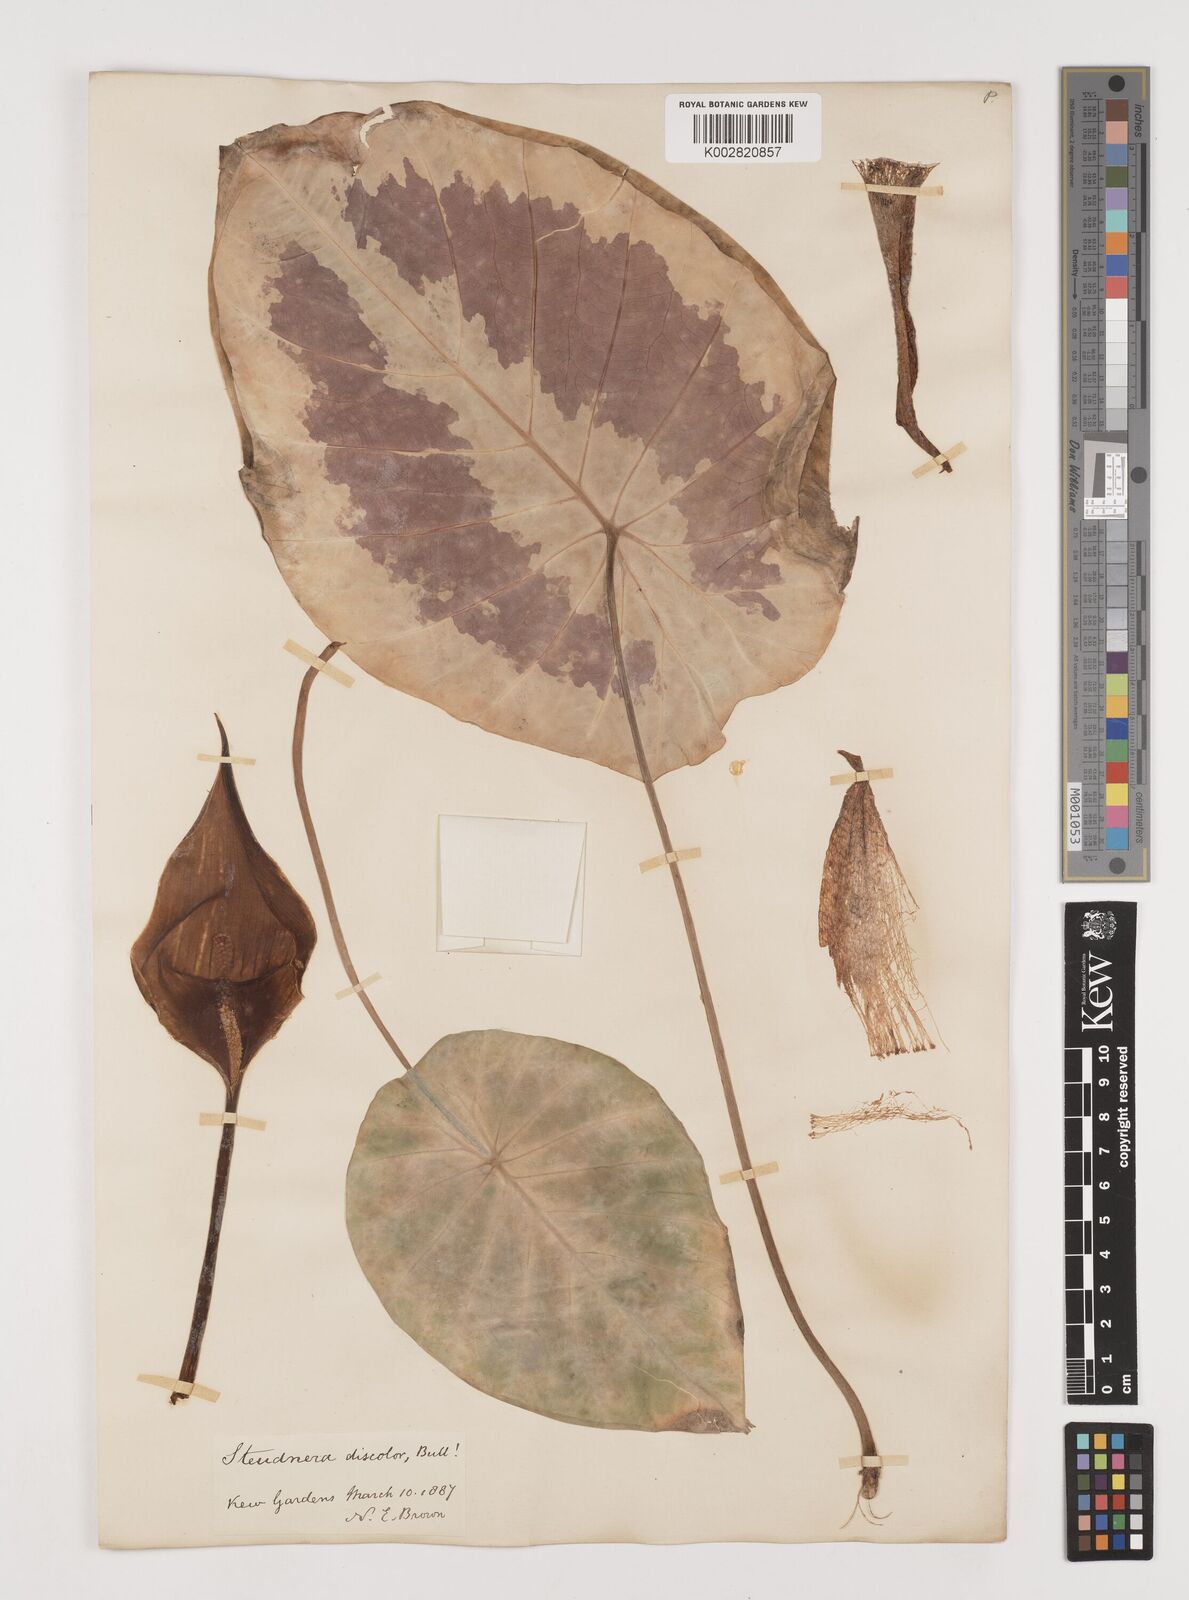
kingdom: Plantae
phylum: Tracheophyta
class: Liliopsida
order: Alismatales
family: Araceae
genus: Steudnera
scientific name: Steudnera discolor
